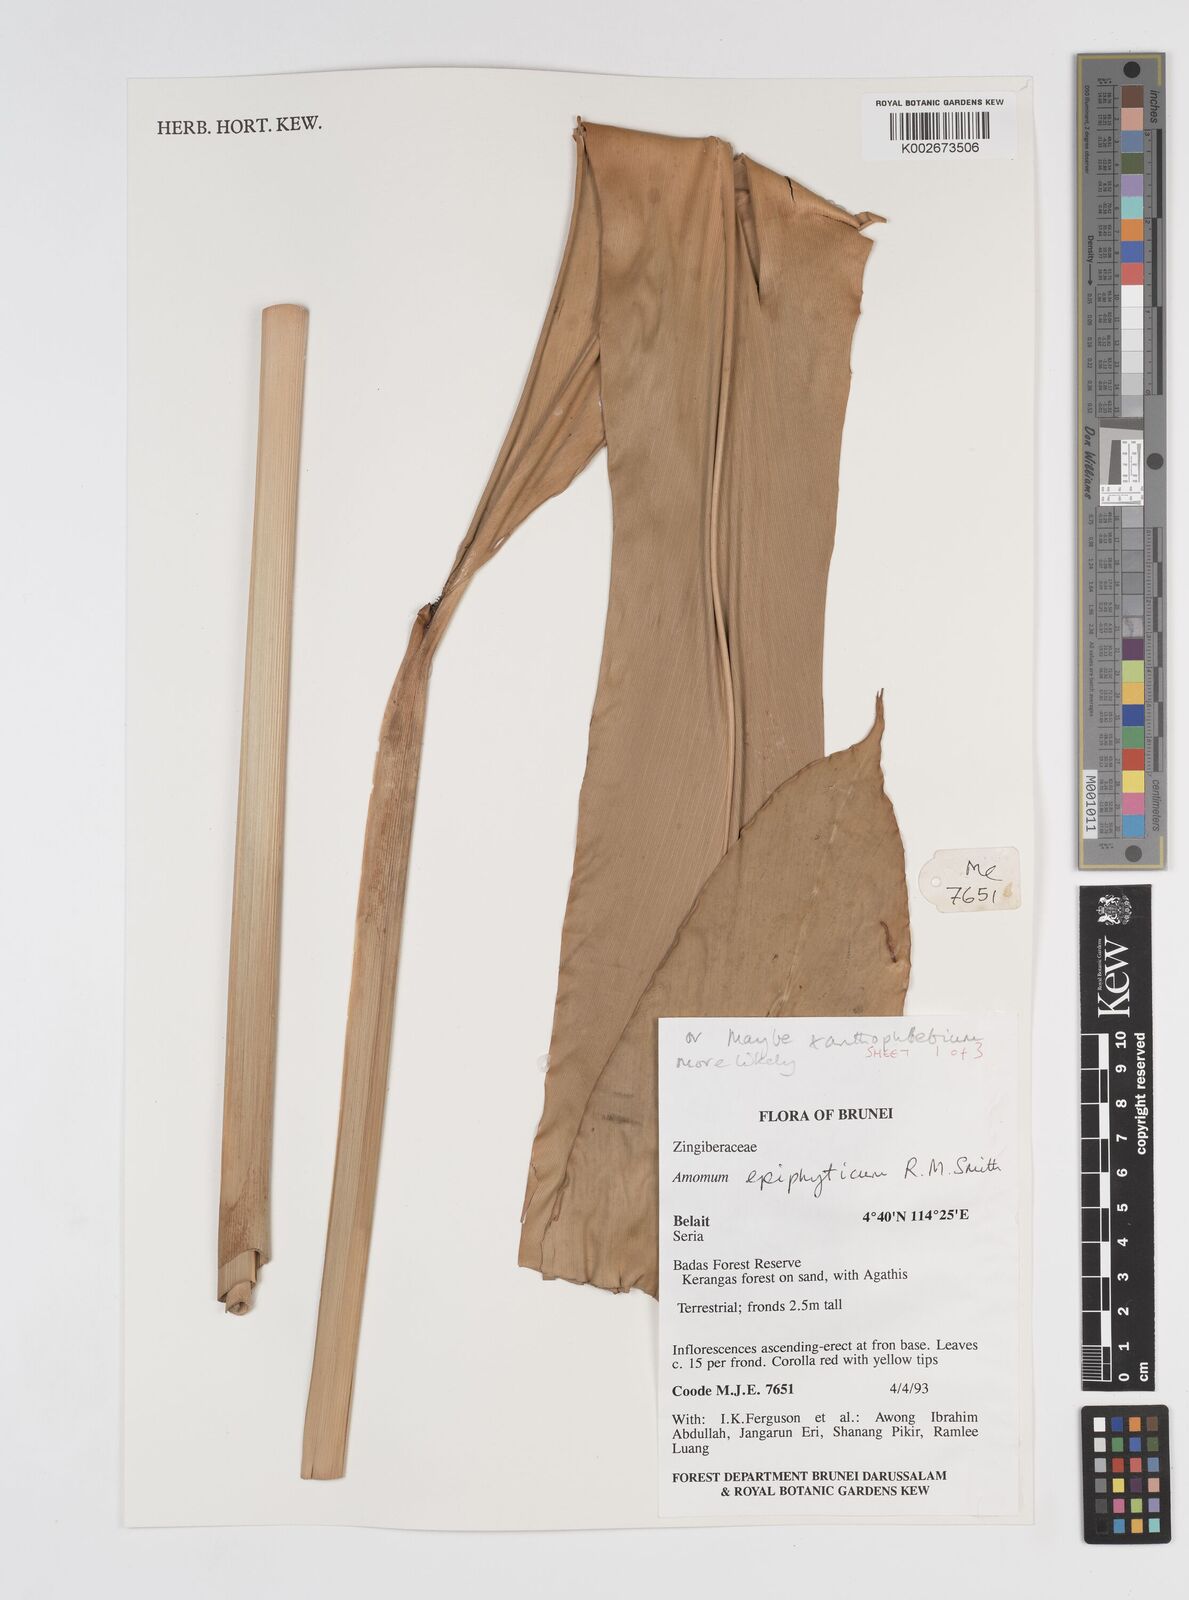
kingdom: Plantae
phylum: Tracheophyta
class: Liliopsida
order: Zingiberales
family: Zingiberaceae
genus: Conamomum
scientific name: Conamomum xanthophlebium
